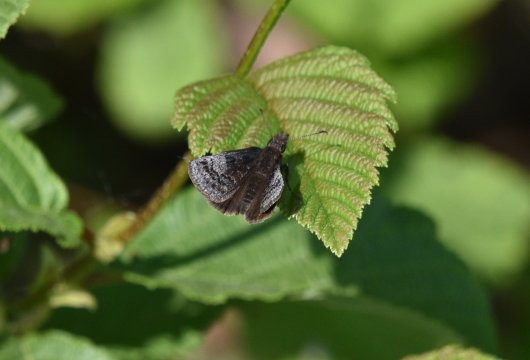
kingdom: Animalia
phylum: Arthropoda
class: Insecta
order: Lepidoptera
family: Hesperiidae
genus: Erynnis
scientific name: Erynnis icelus
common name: Dreamy Duskywing
